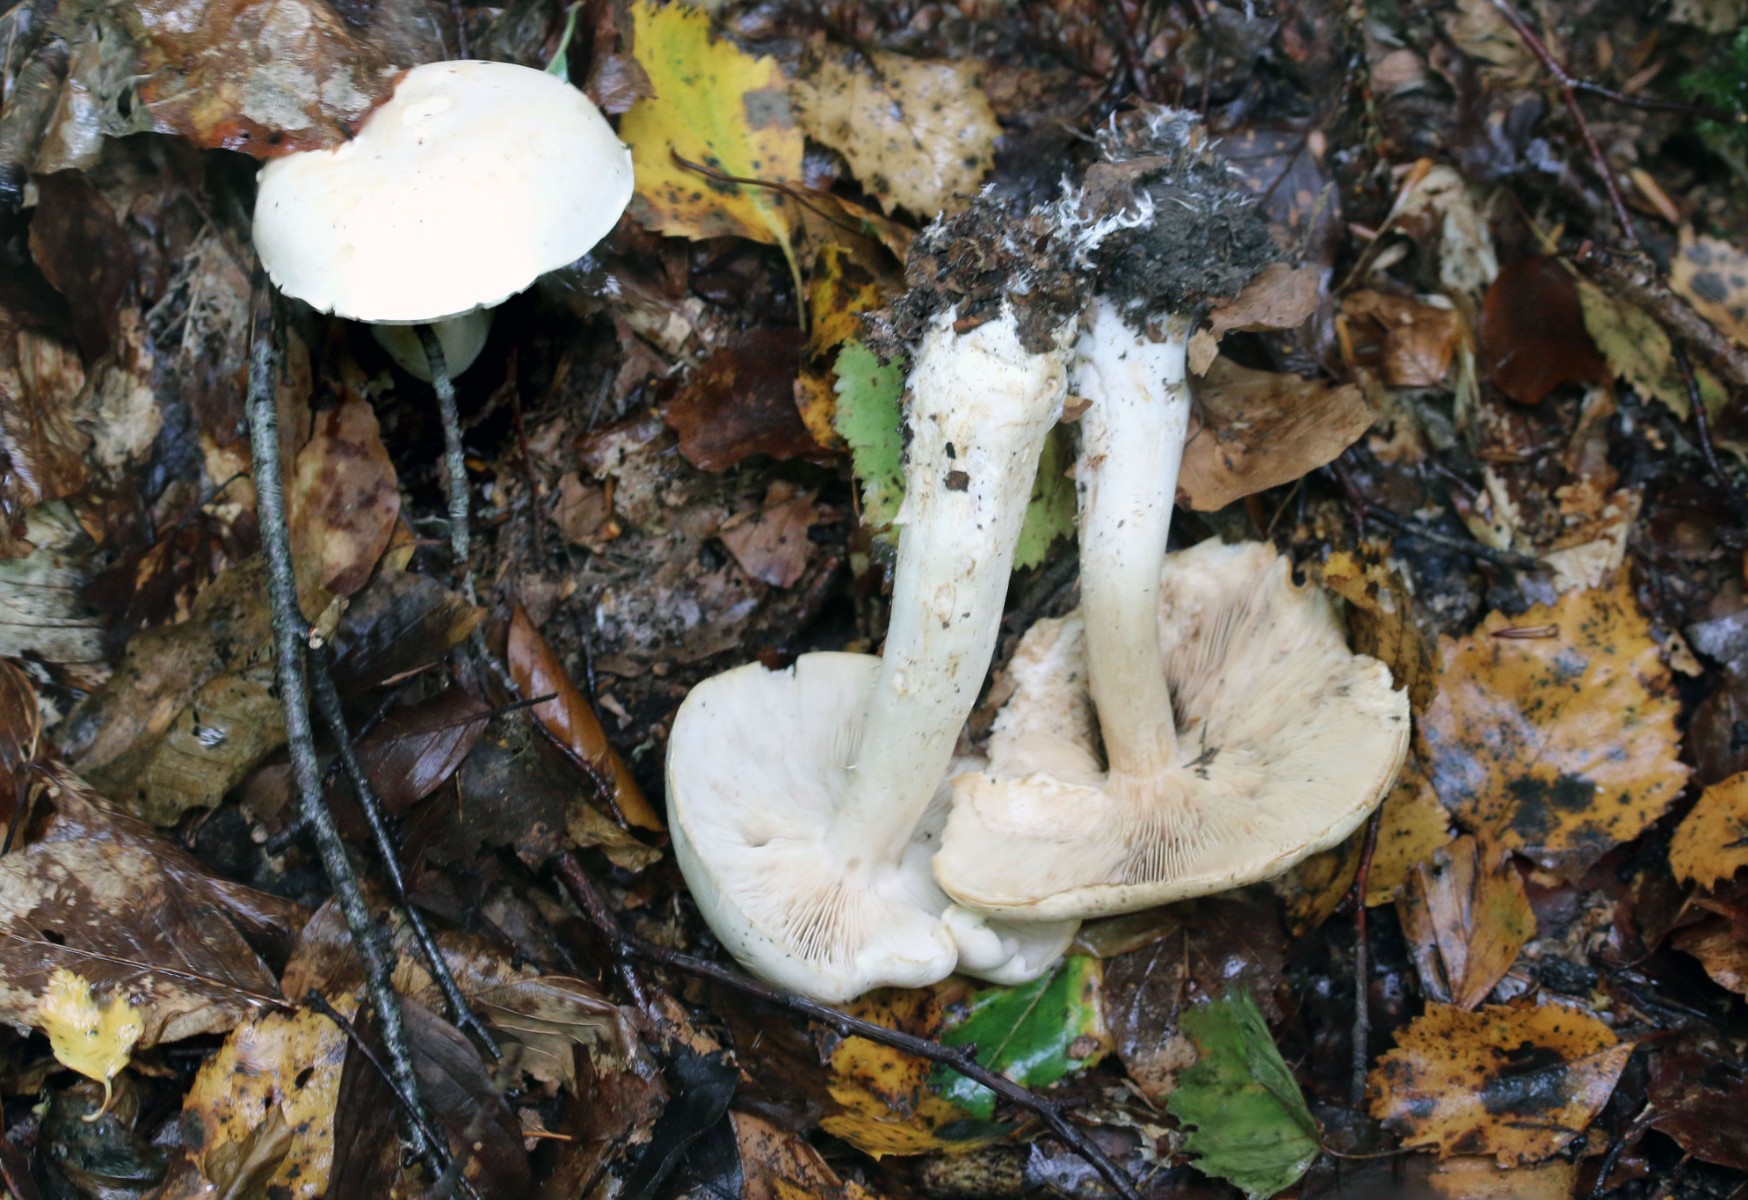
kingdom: Fungi
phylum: Basidiomycota
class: Agaricomycetes
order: Agaricales
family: Tricholomataceae
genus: Tricholoma
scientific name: Tricholoma lascivum
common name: stinkende ridderhat
